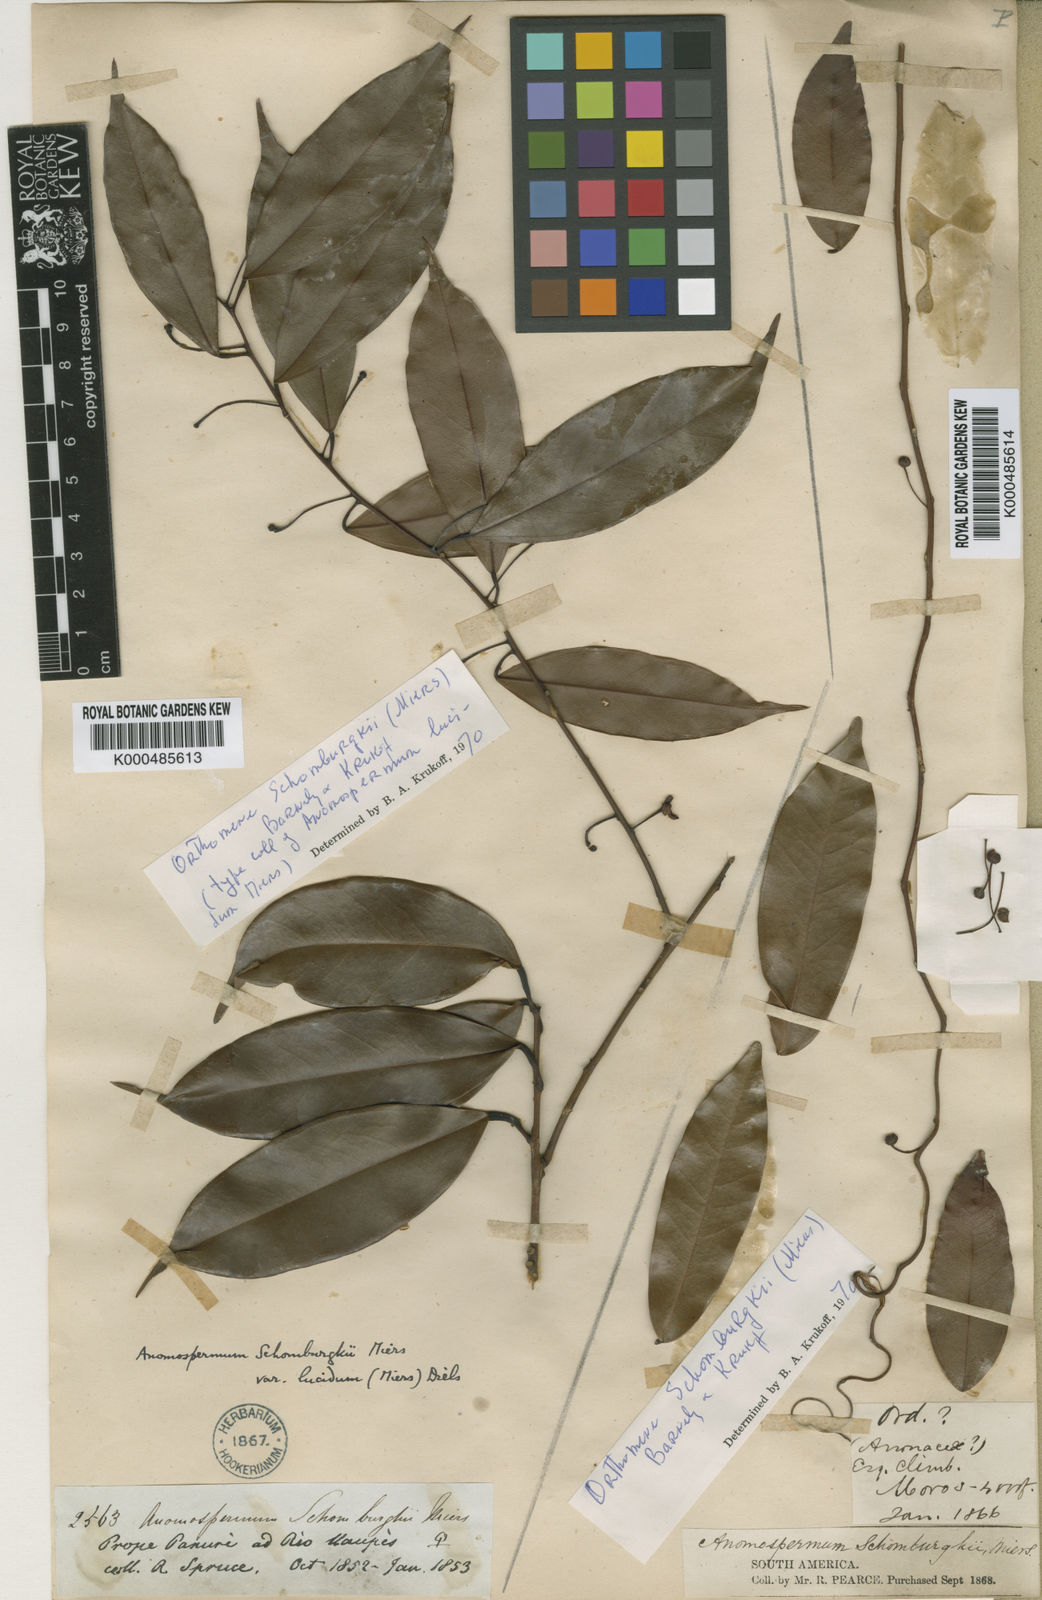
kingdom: Plantae
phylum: Tracheophyta
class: Magnoliopsida
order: Ranunculales
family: Menispermaceae
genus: Orthomene
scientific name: Orthomene schomburgkii
